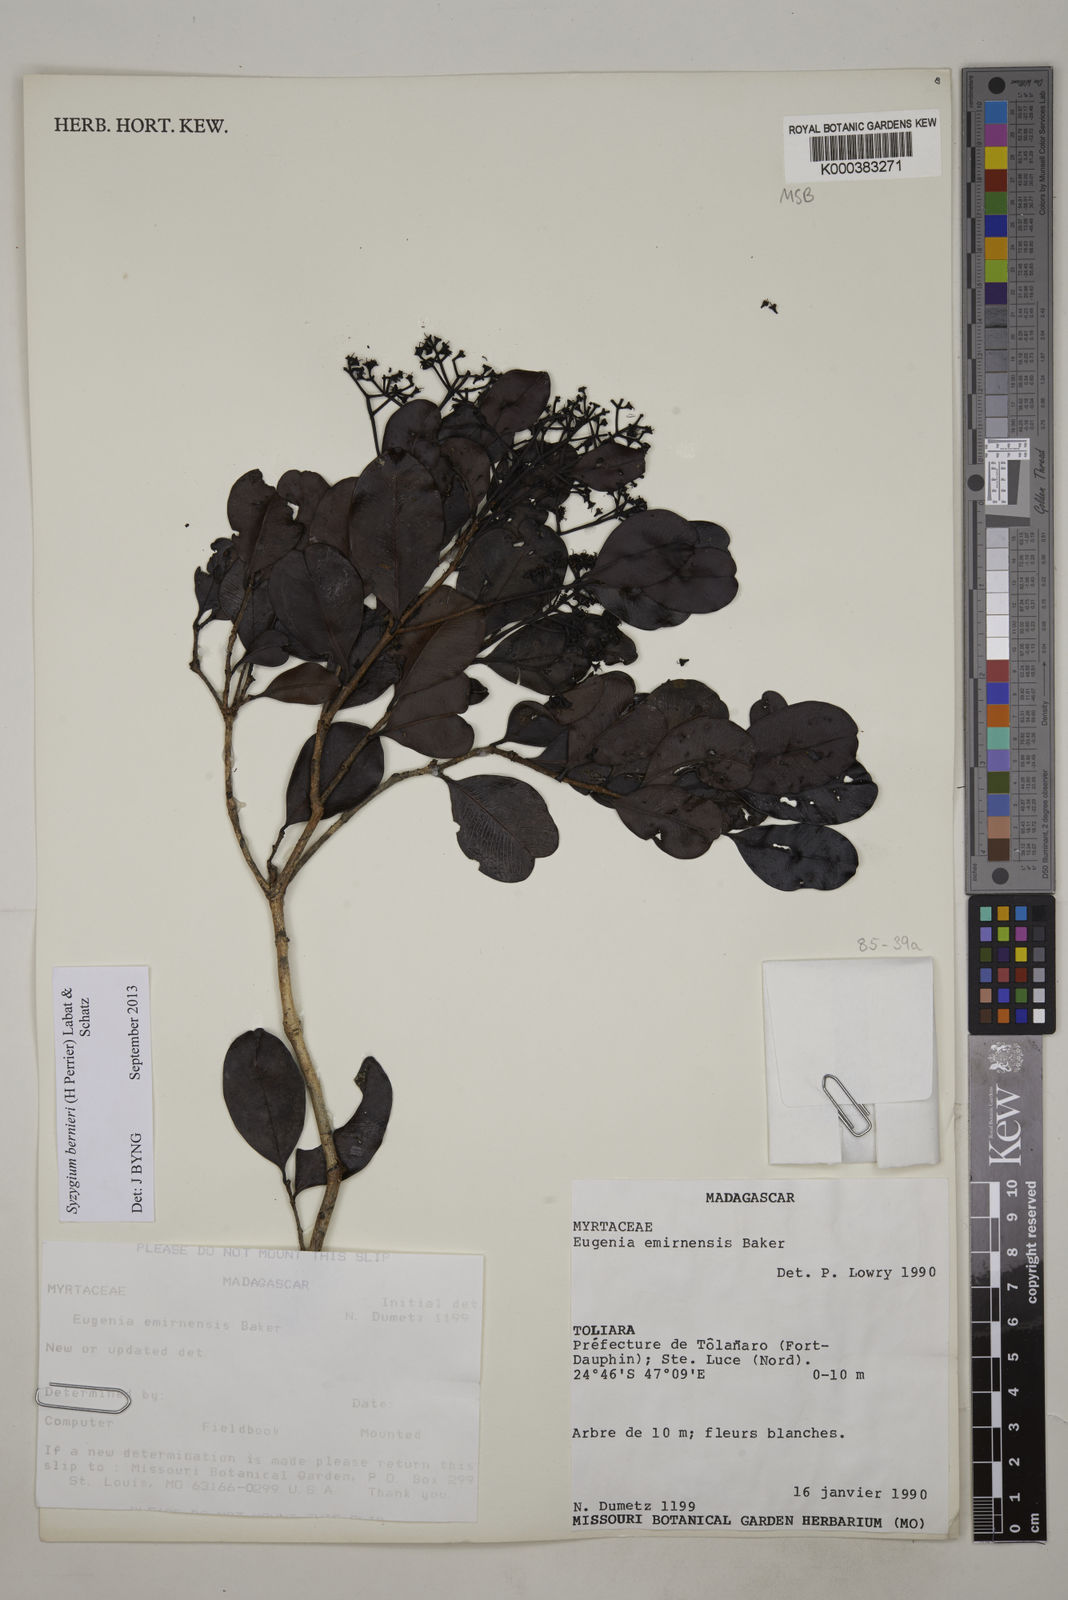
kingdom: Plantae
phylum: Tracheophyta
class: Magnoliopsida
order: Myrtales
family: Myrtaceae
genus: Syzygium
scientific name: Syzygium emirnense
